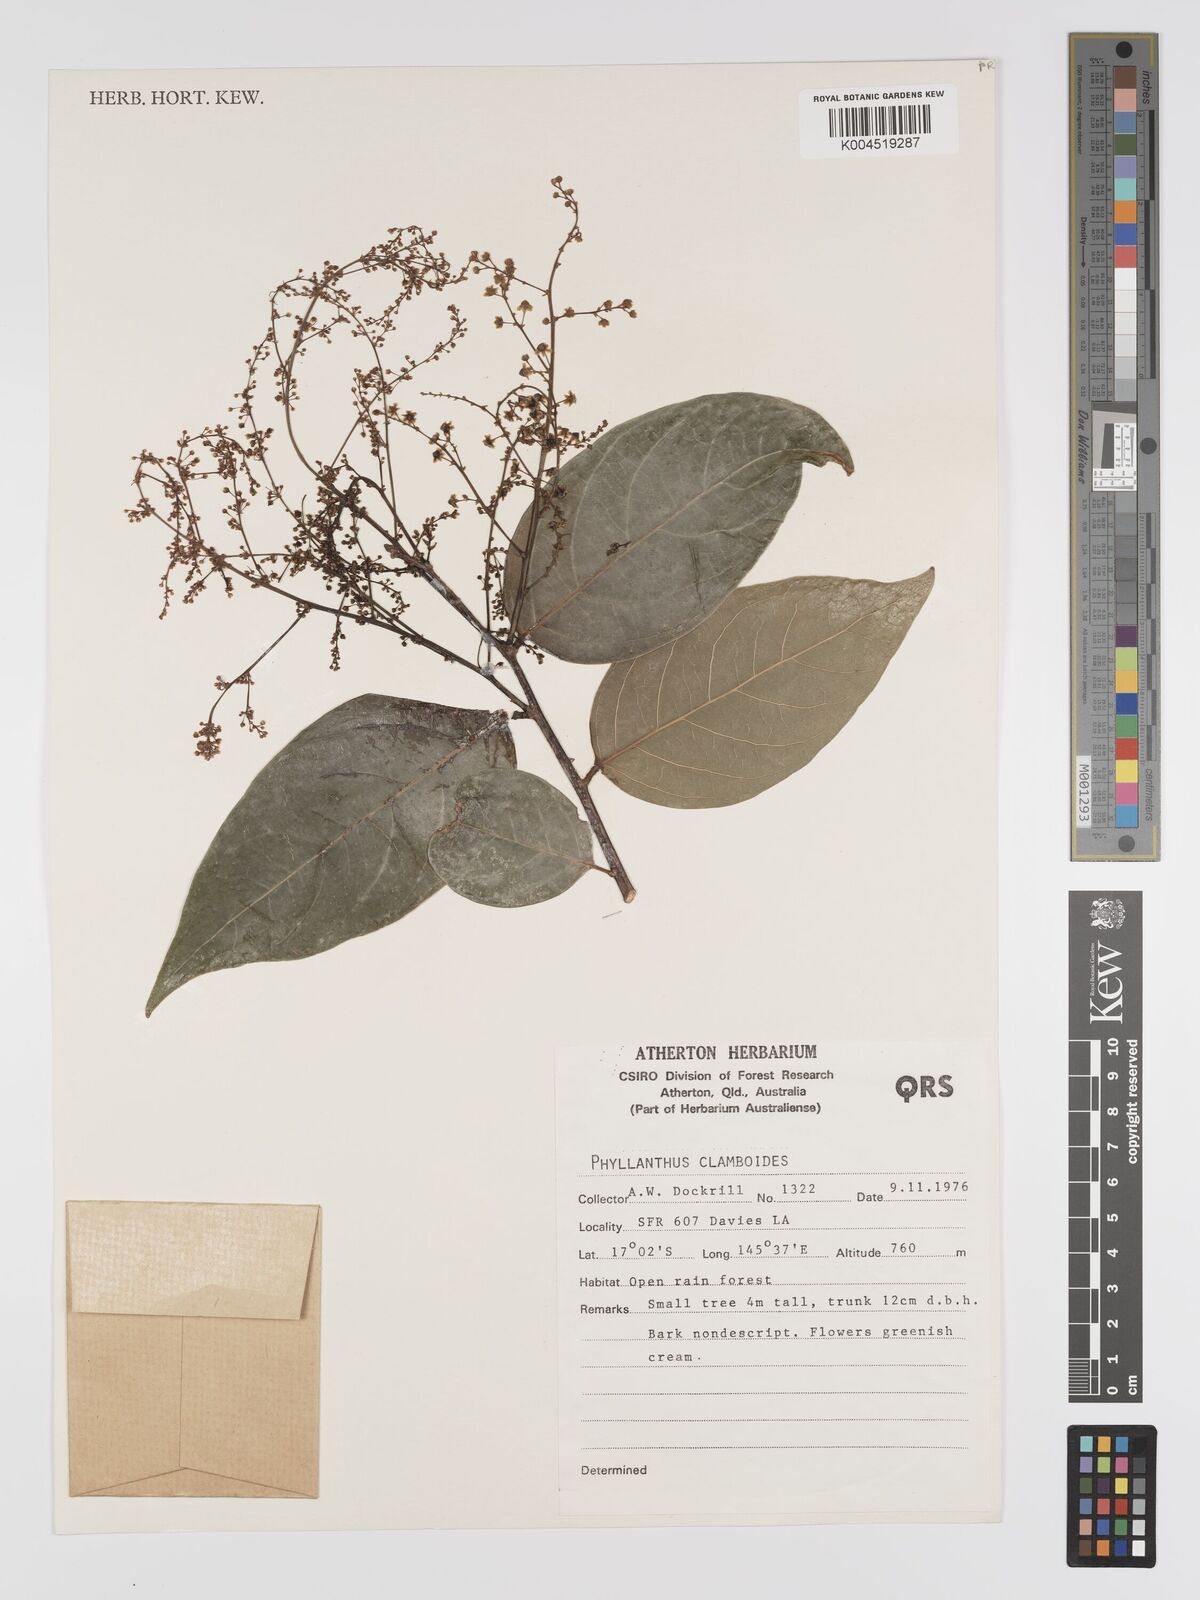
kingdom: Plantae
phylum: Tracheophyta
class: Magnoliopsida
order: Malpighiales
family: Phyllanthaceae
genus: Phyllanthus
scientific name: Phyllanthus clamboides
